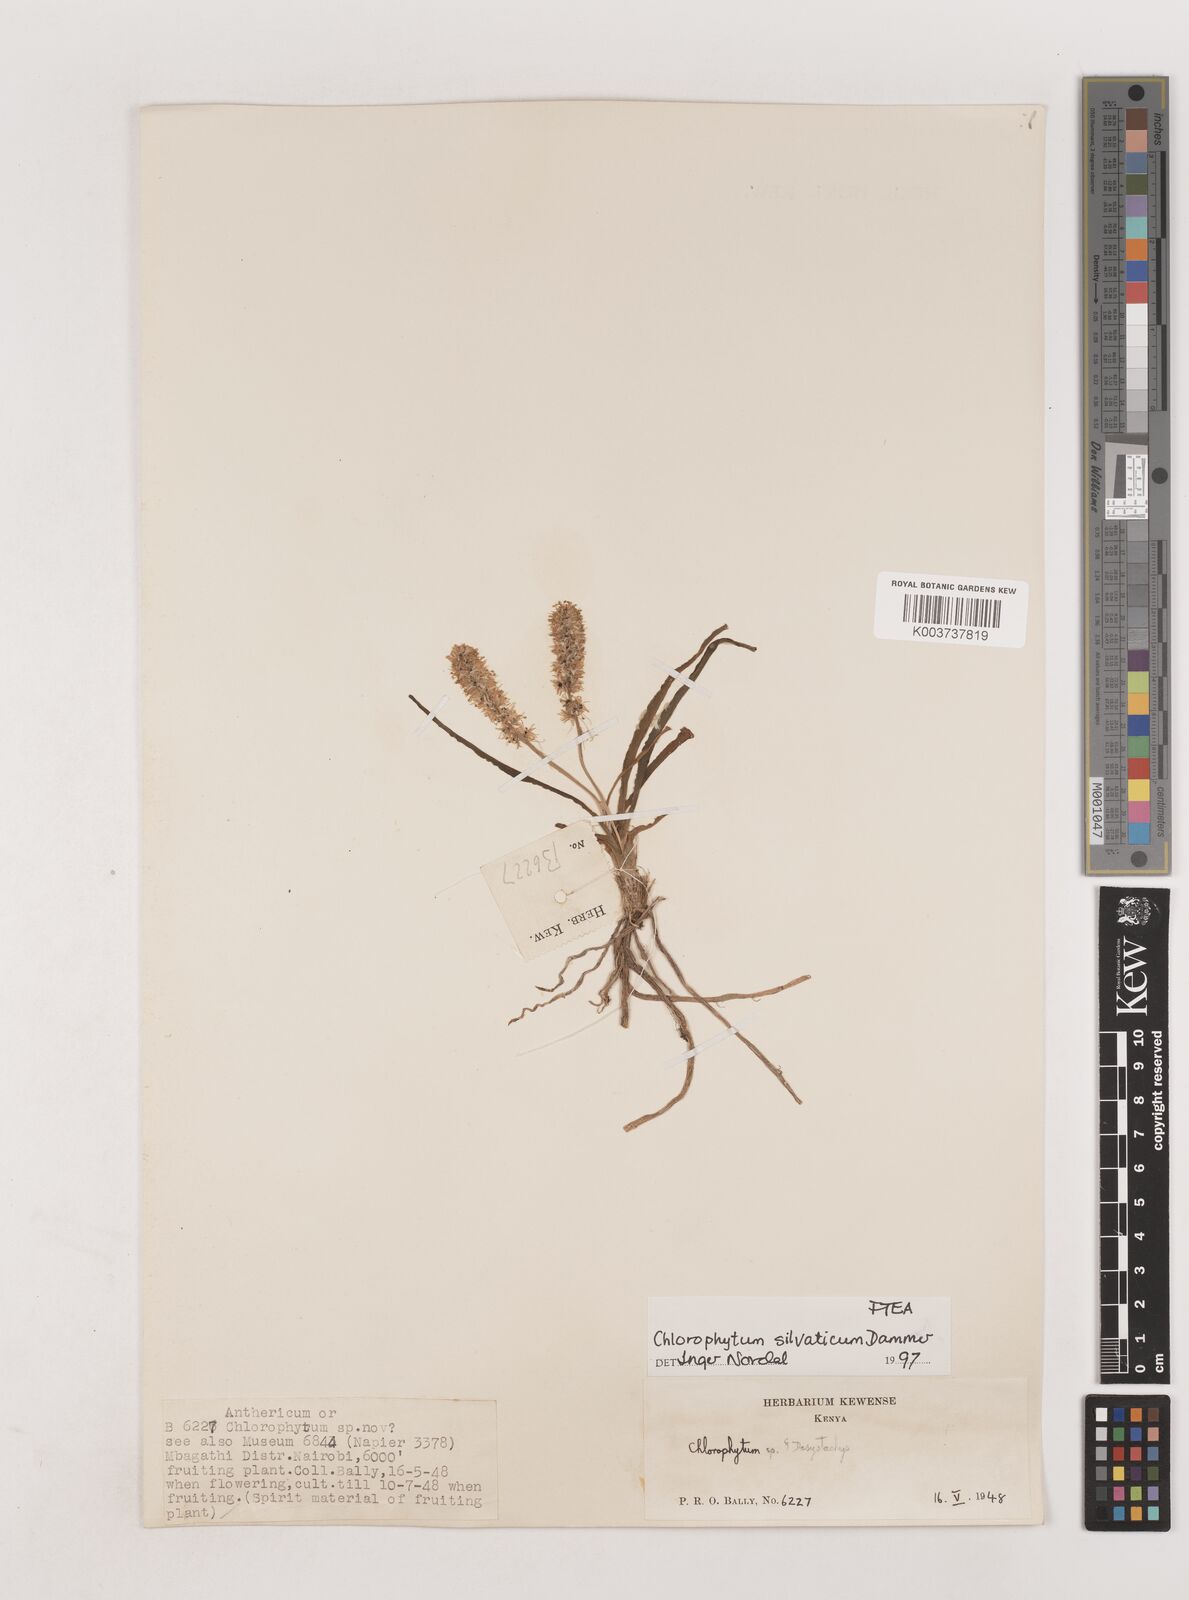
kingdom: Plantae
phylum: Tracheophyta
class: Liliopsida
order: Asparagales
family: Asparagaceae
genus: Chlorophytum
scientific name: Chlorophytum africanum
